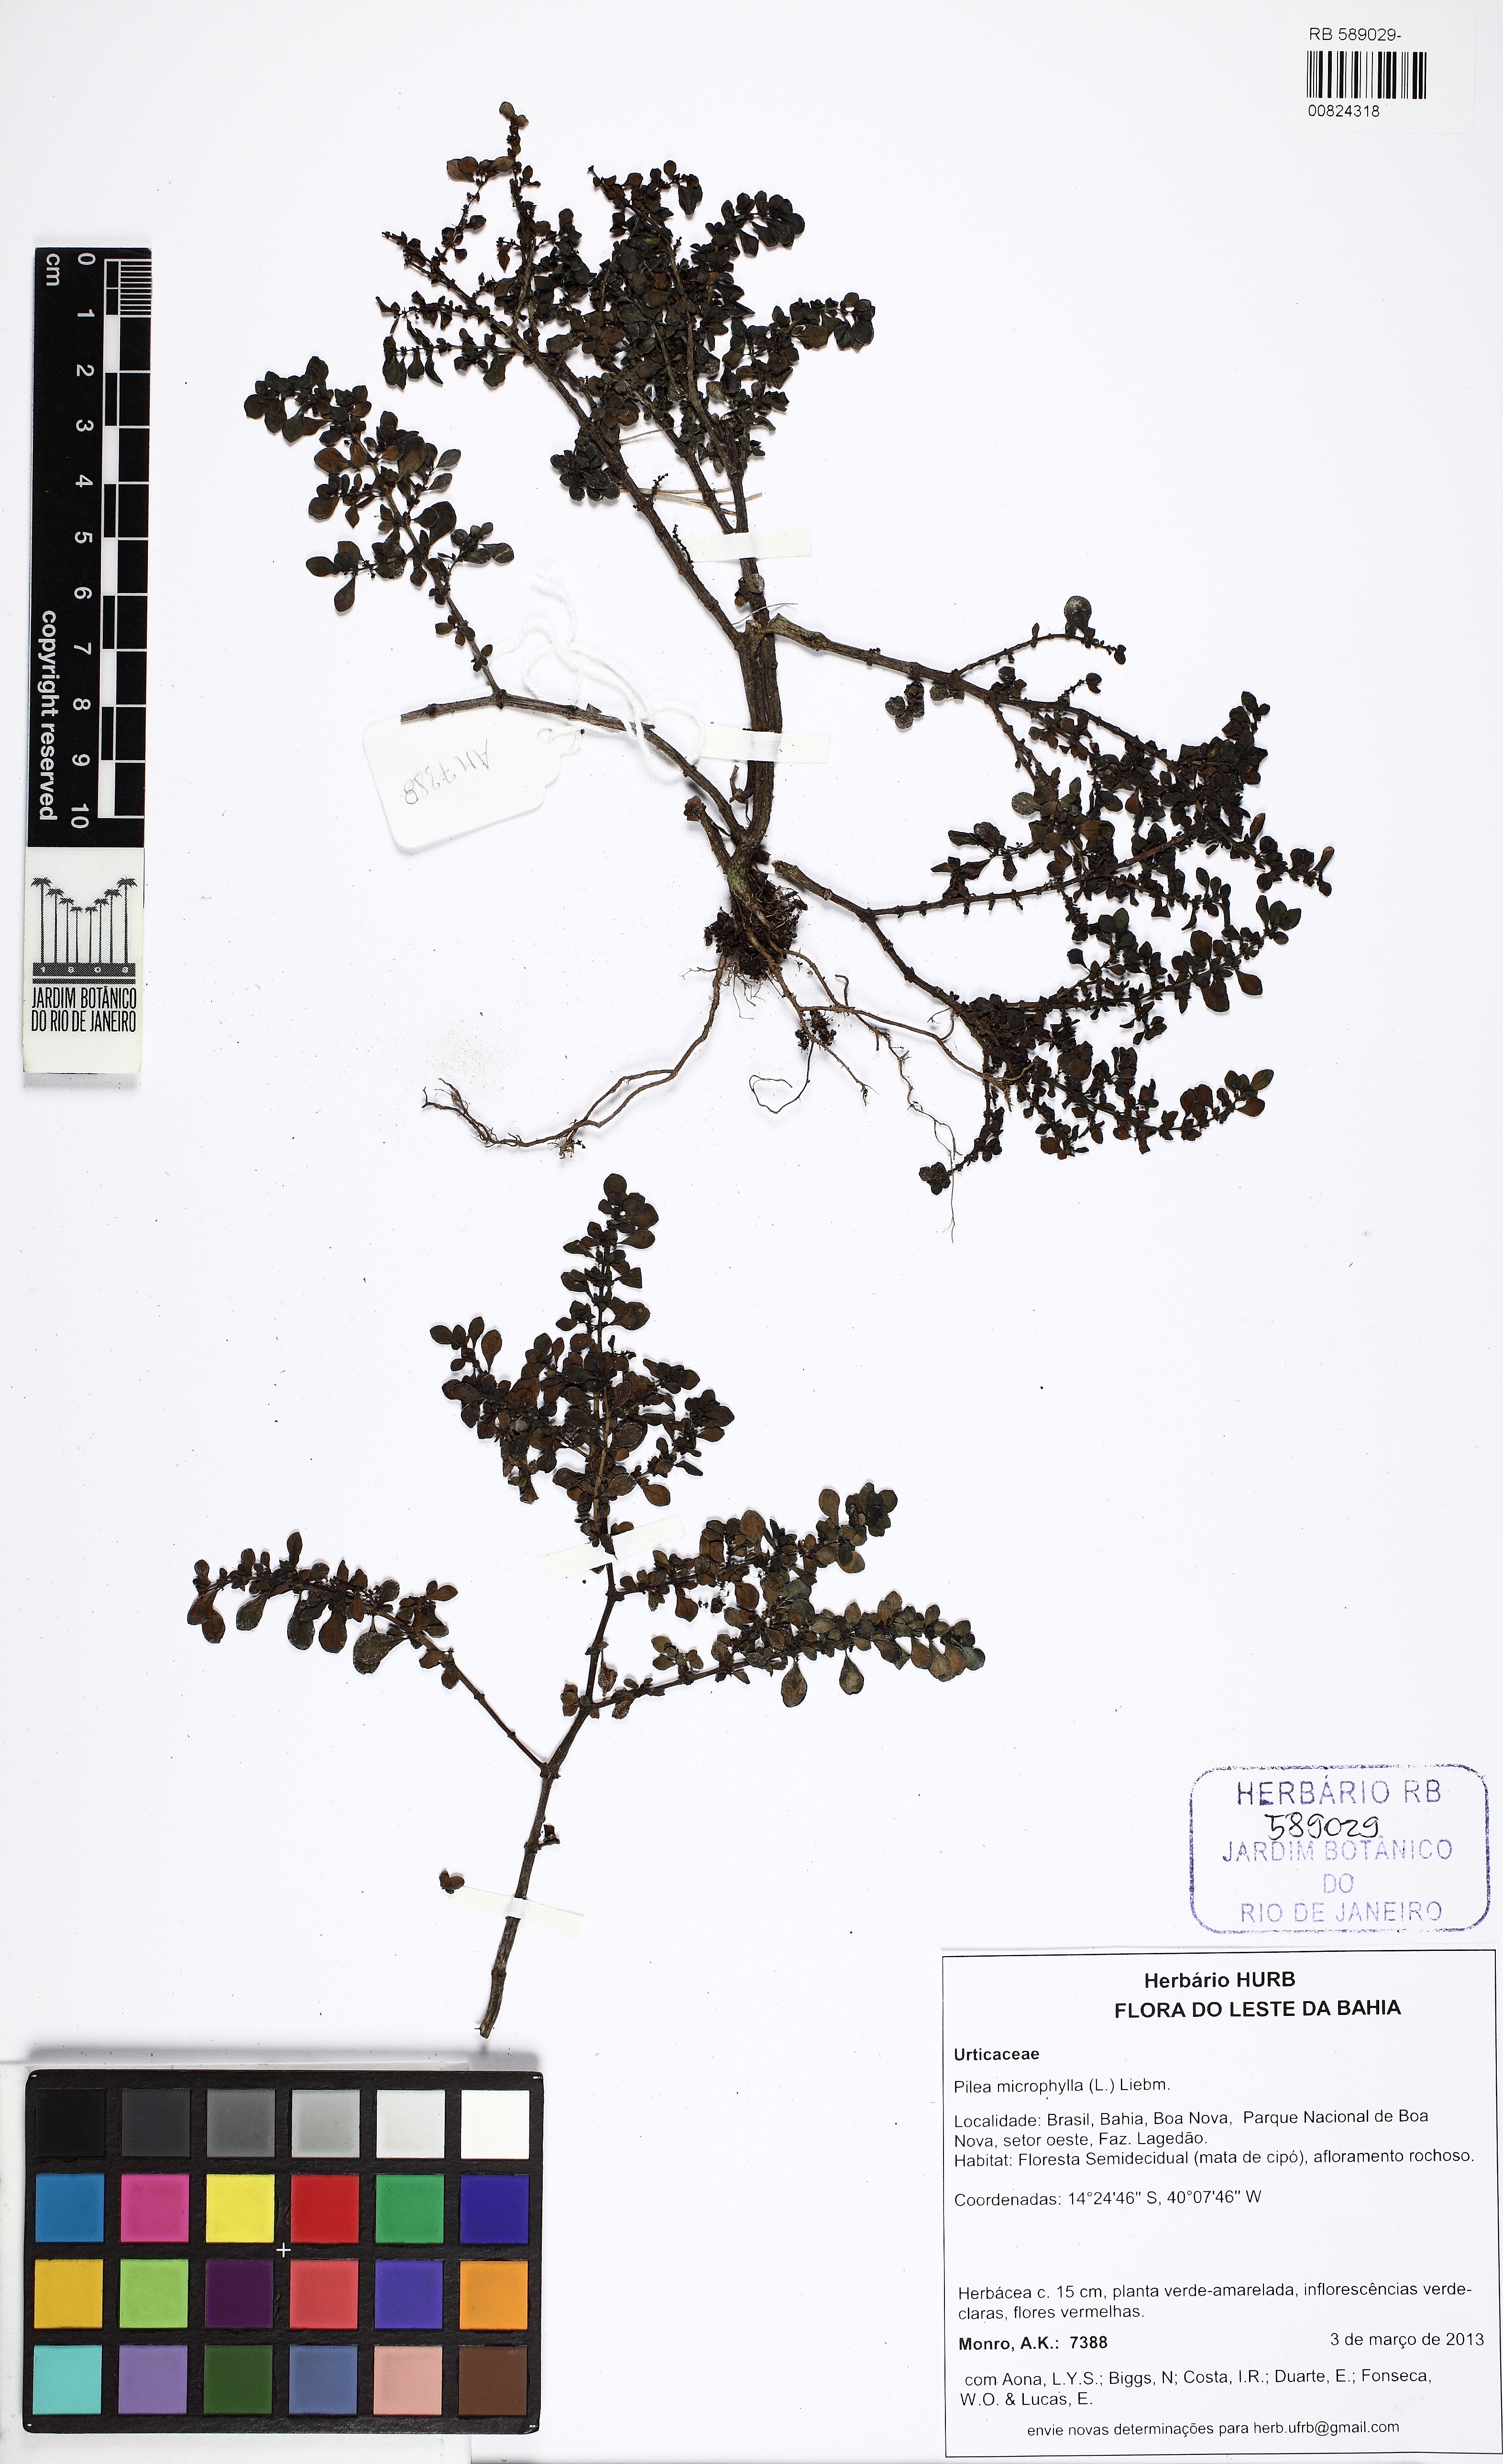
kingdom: Plantae
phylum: Tracheophyta
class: Magnoliopsida
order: Rosales
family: Urticaceae
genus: Pilea
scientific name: Pilea microphylla
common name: Artillery-plant
